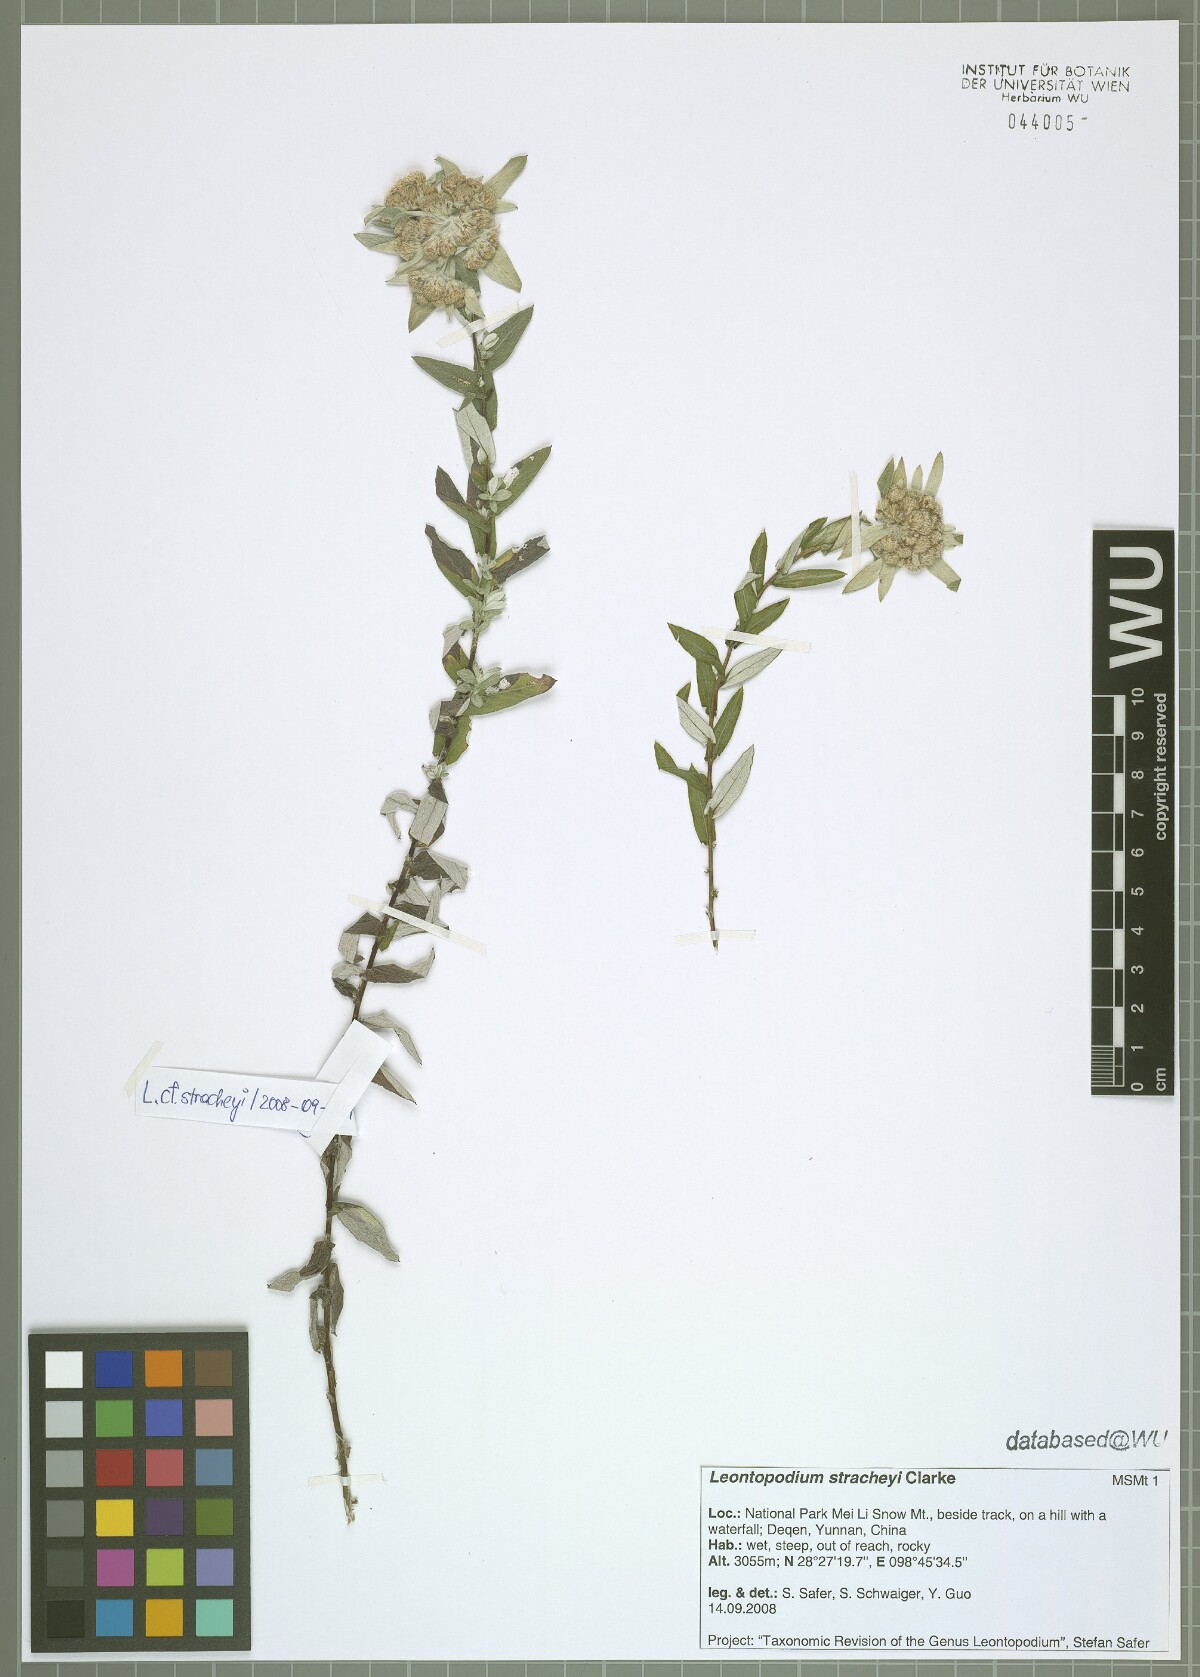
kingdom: Plantae
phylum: Tracheophyta
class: Magnoliopsida
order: Asterales
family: Asteraceae
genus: Leontopodium
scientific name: Leontopodium stracheyi
